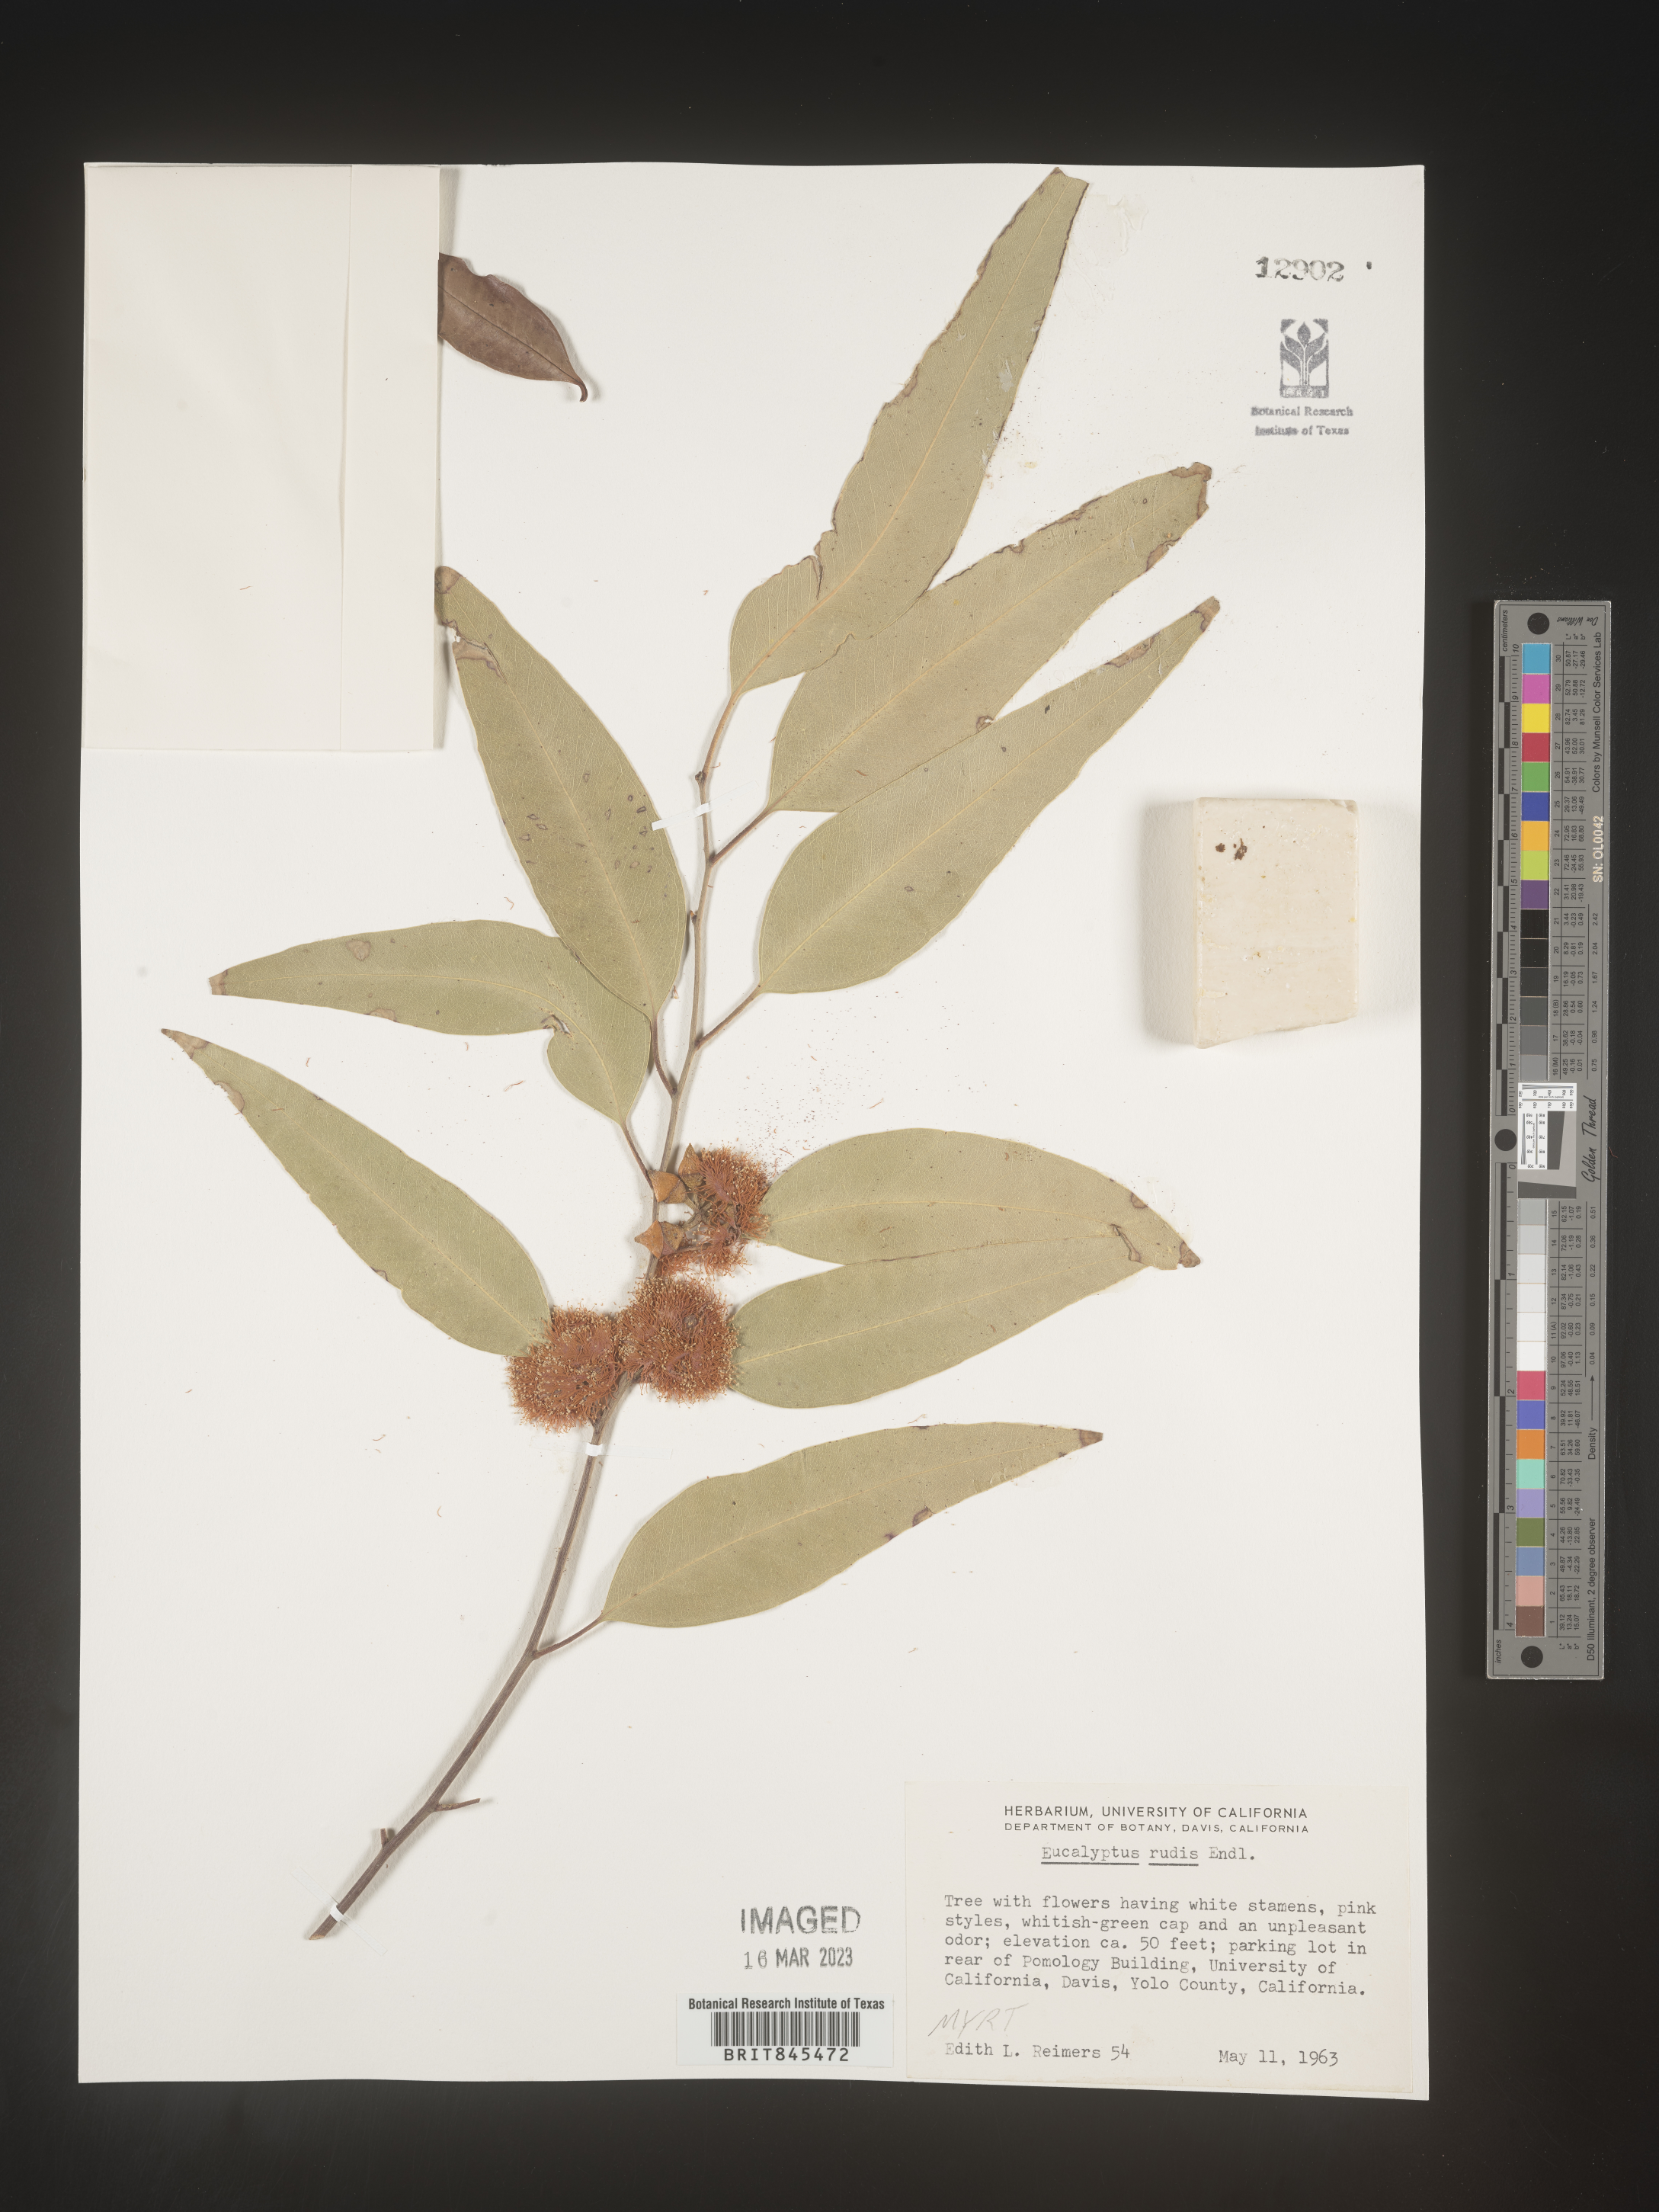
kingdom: Plantae
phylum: Tracheophyta
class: Magnoliopsida
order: Myrtales
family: Myrtaceae
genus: Eucalyptus
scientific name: Eucalyptus
